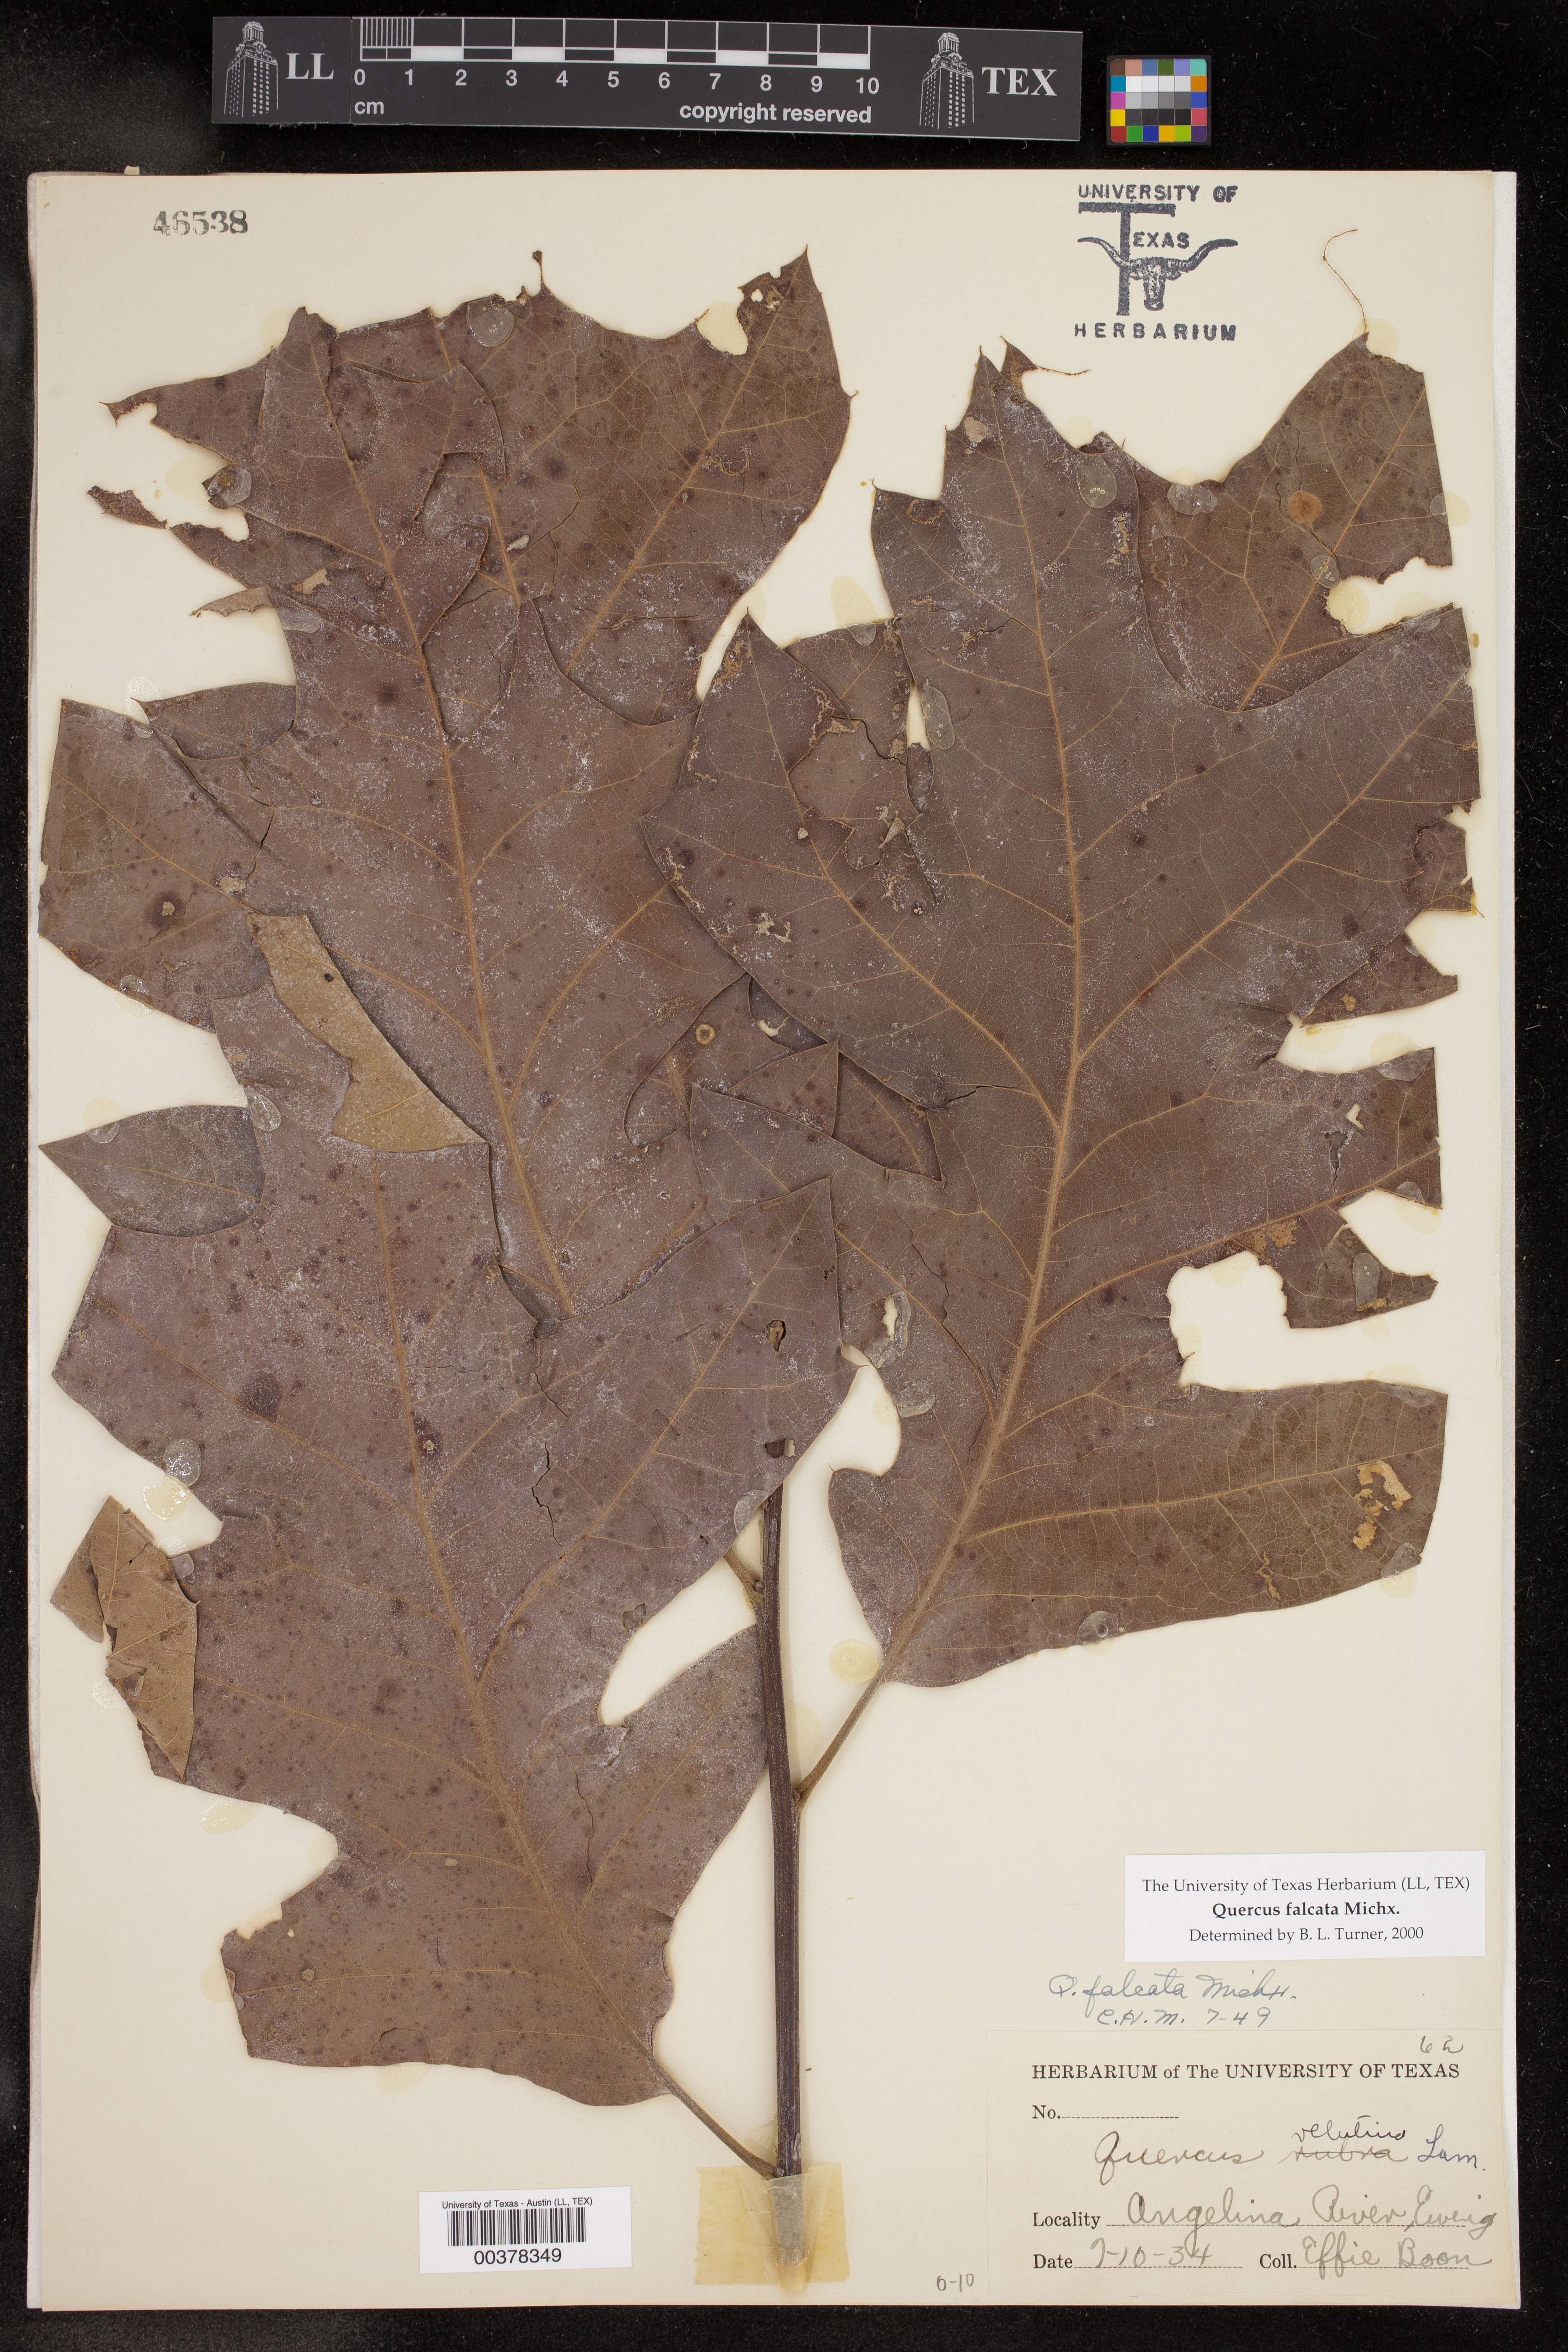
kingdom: Plantae
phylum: Tracheophyta
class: Magnoliopsida
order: Fagales
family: Fagaceae
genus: Quercus
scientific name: Quercus falcata
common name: Southern red oak
